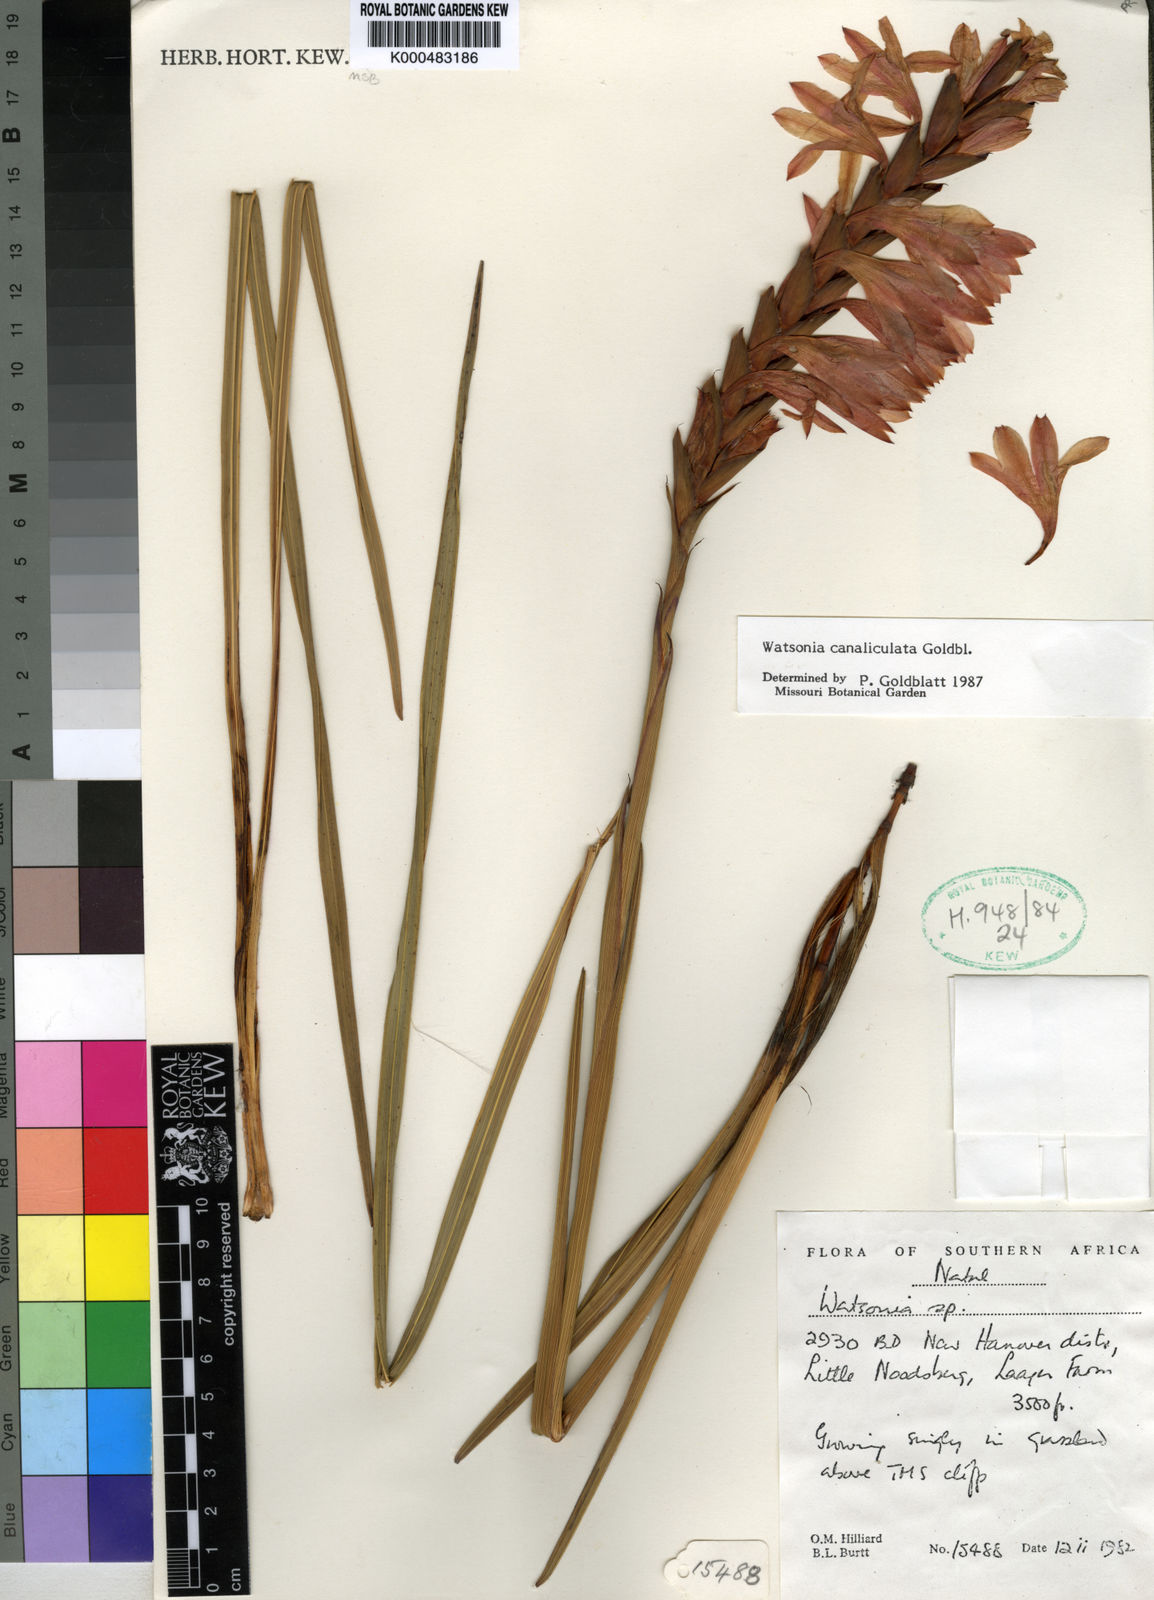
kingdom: Plantae
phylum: Tracheophyta
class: Liliopsida
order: Asparagales
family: Iridaceae
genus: Watsonia
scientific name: Watsonia canaliculata
